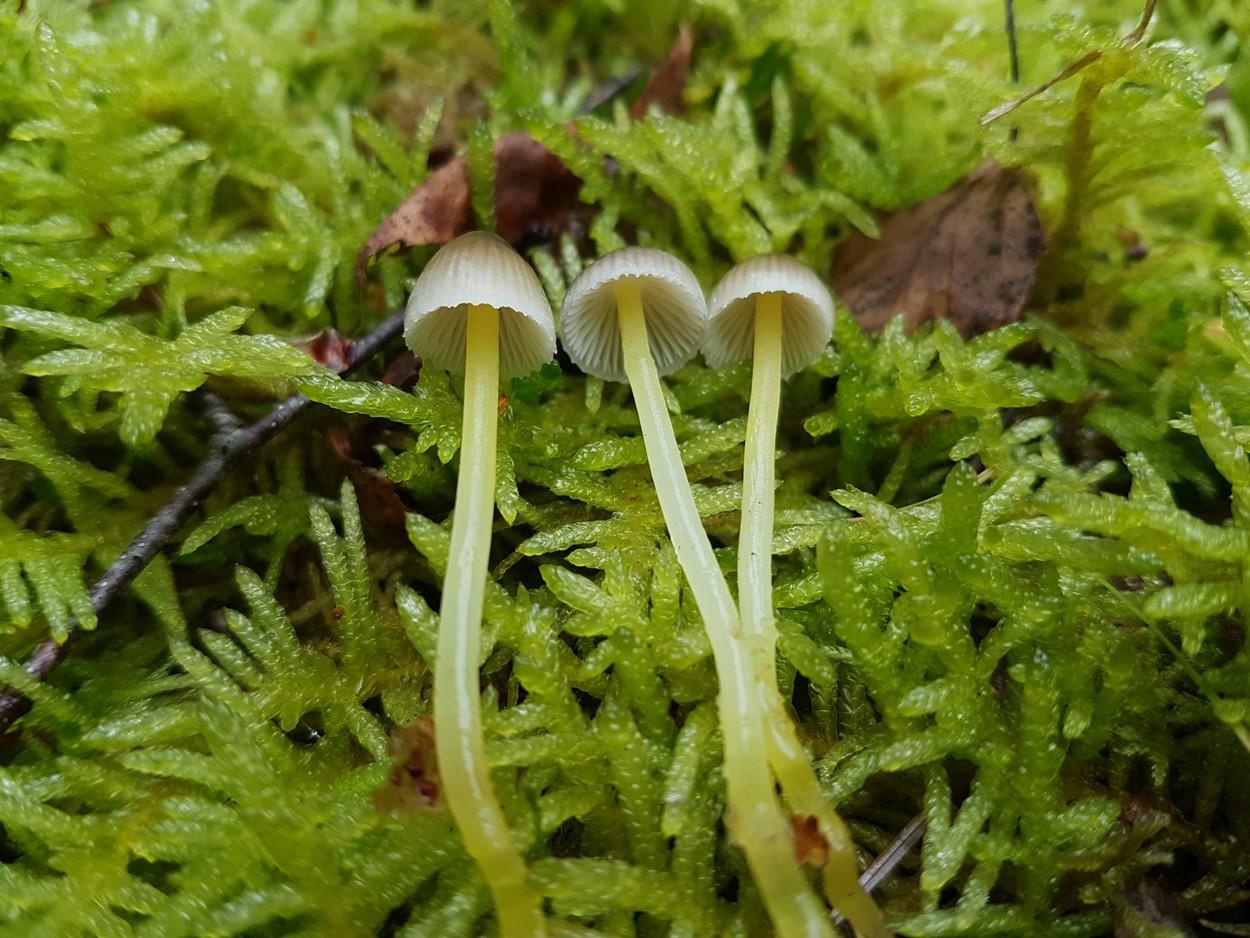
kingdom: Fungi
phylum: Basidiomycota
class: Agaricomycetes
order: Agaricales
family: Mycenaceae
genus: Mycena
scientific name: Mycena epipterygia
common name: gulstokket huesvamp
